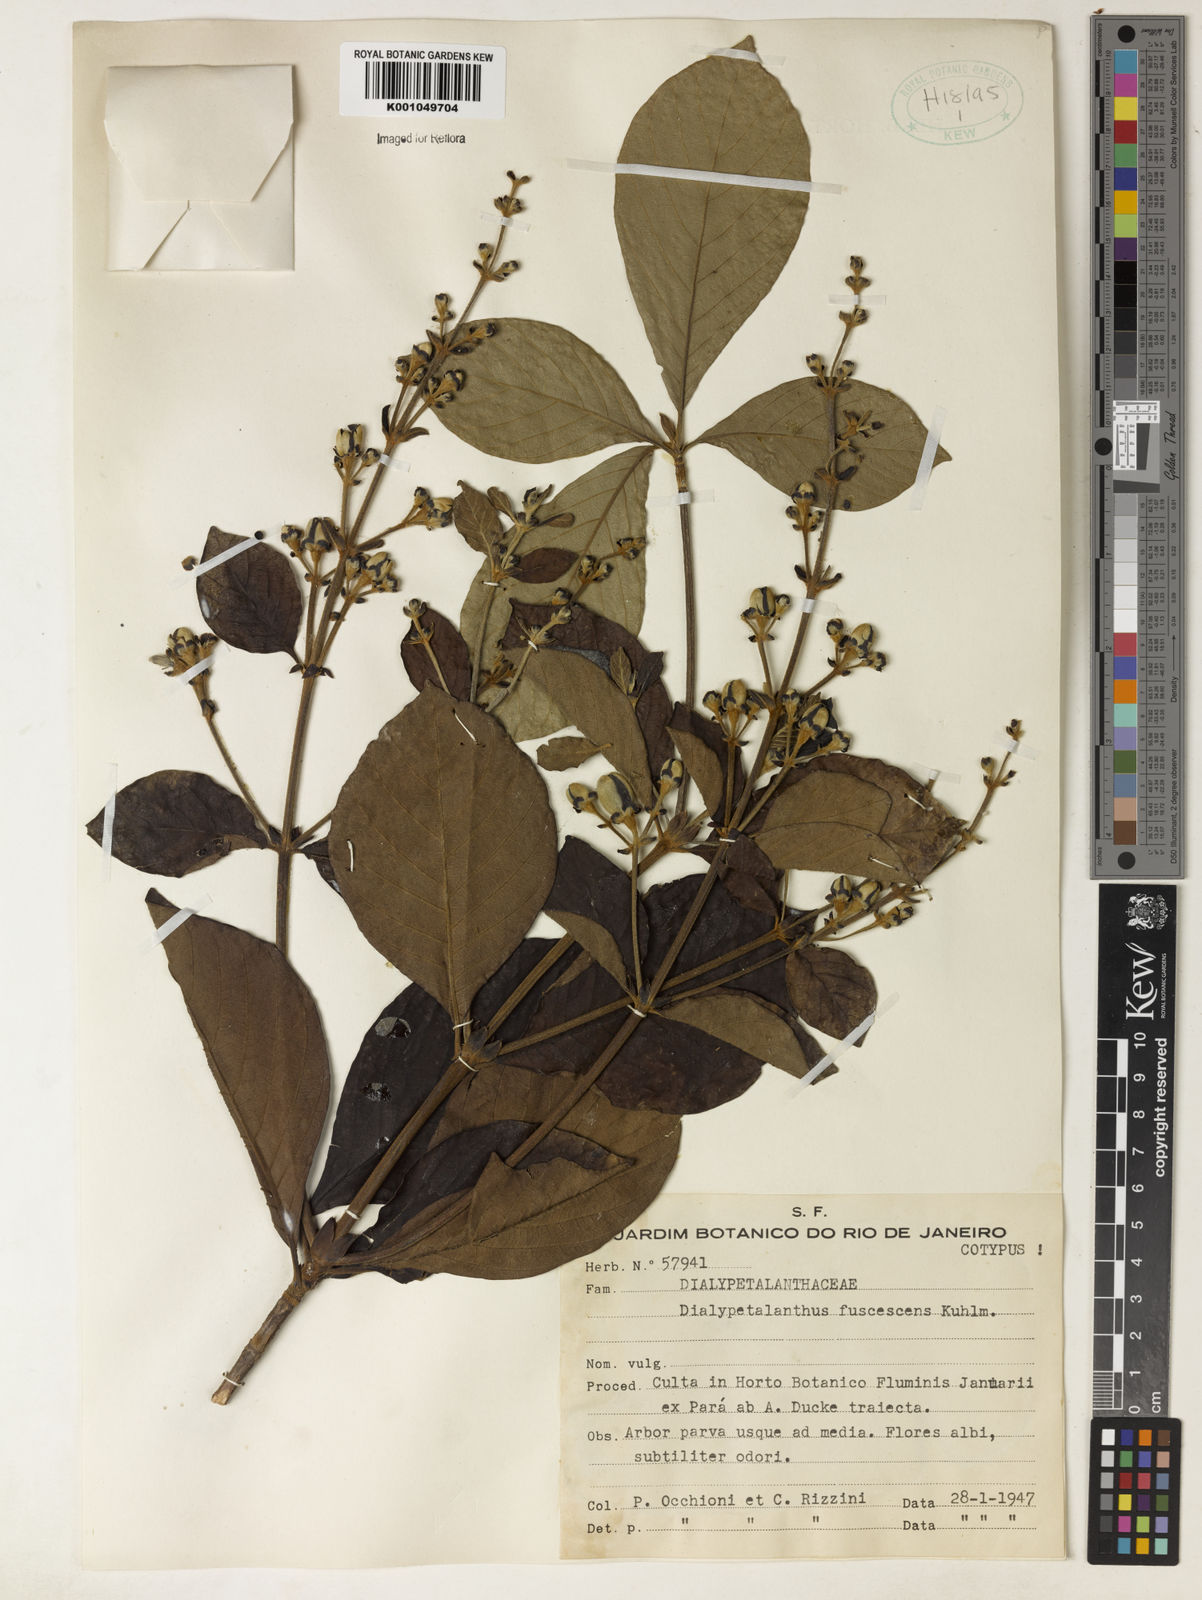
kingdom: Plantae
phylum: Tracheophyta
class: Magnoliopsida
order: Gentianales
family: Rubiaceae
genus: Dialypetalanthus
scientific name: Dialypetalanthus fuscescens
